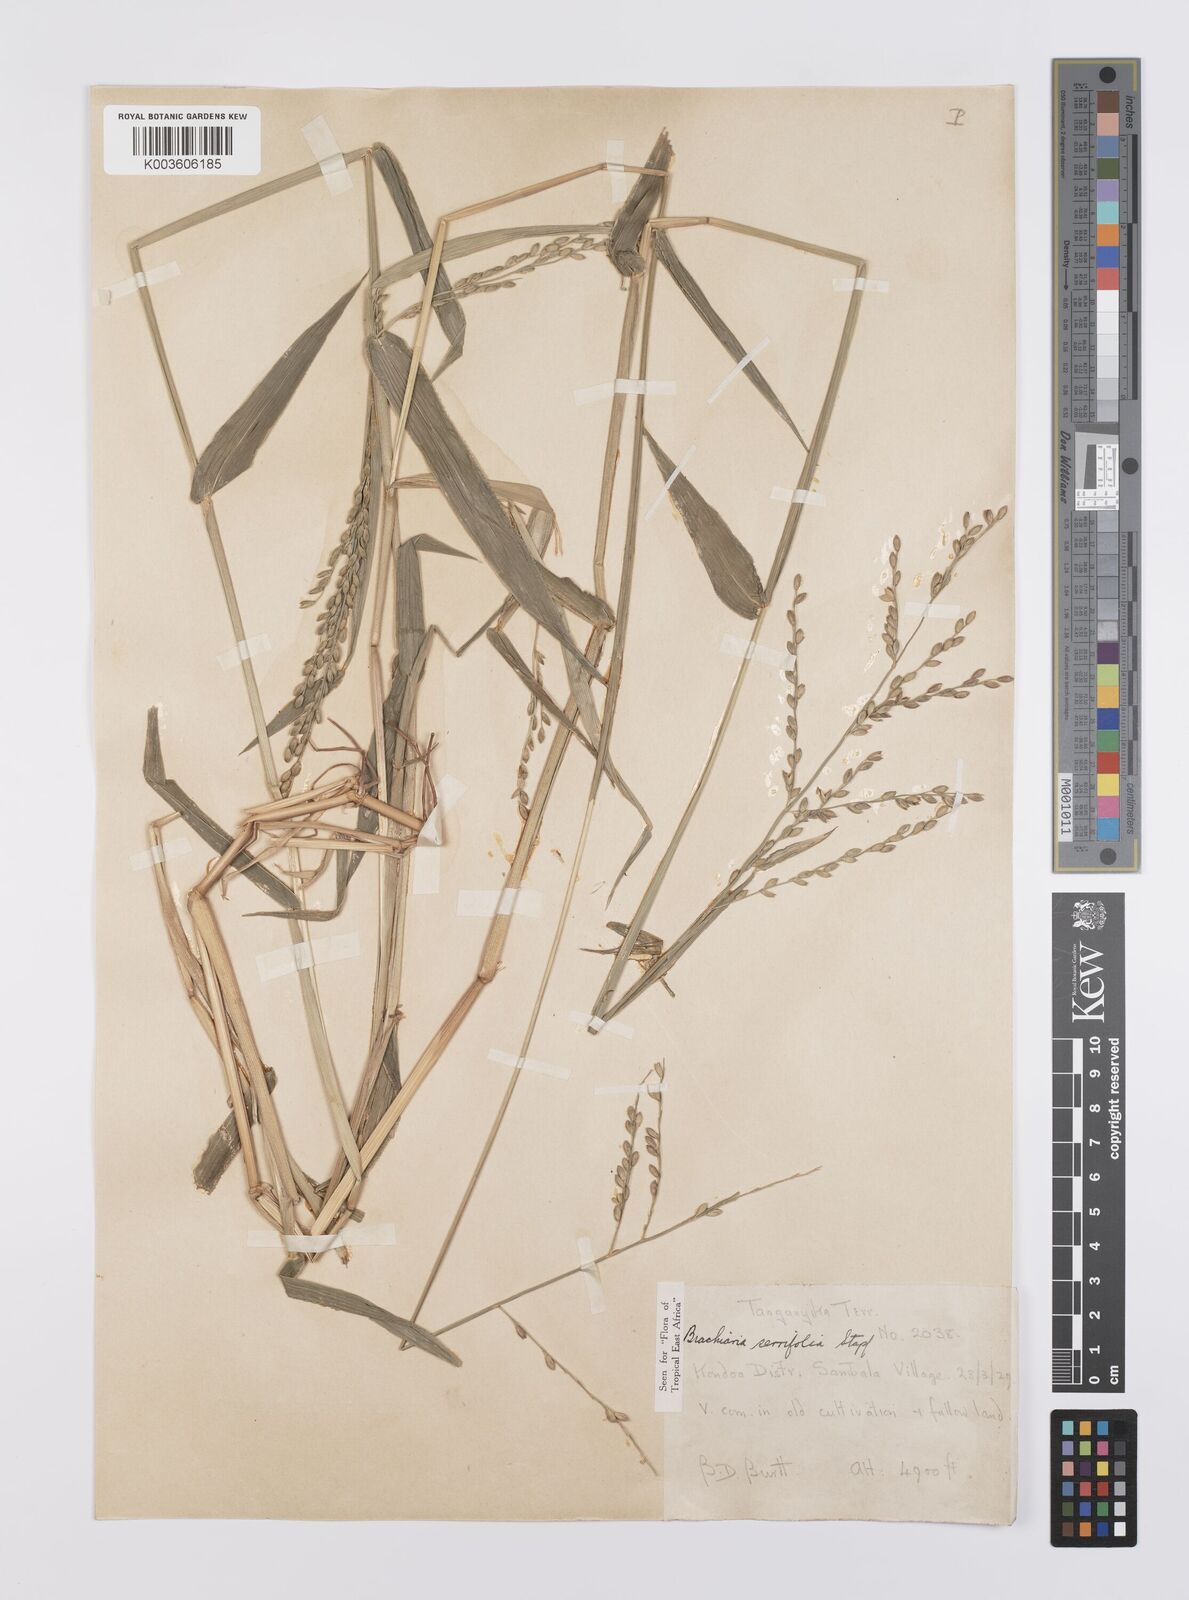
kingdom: Plantae
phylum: Tracheophyta
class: Liliopsida
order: Poales
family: Poaceae
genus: Urochloa
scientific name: Urochloa serrifolia
